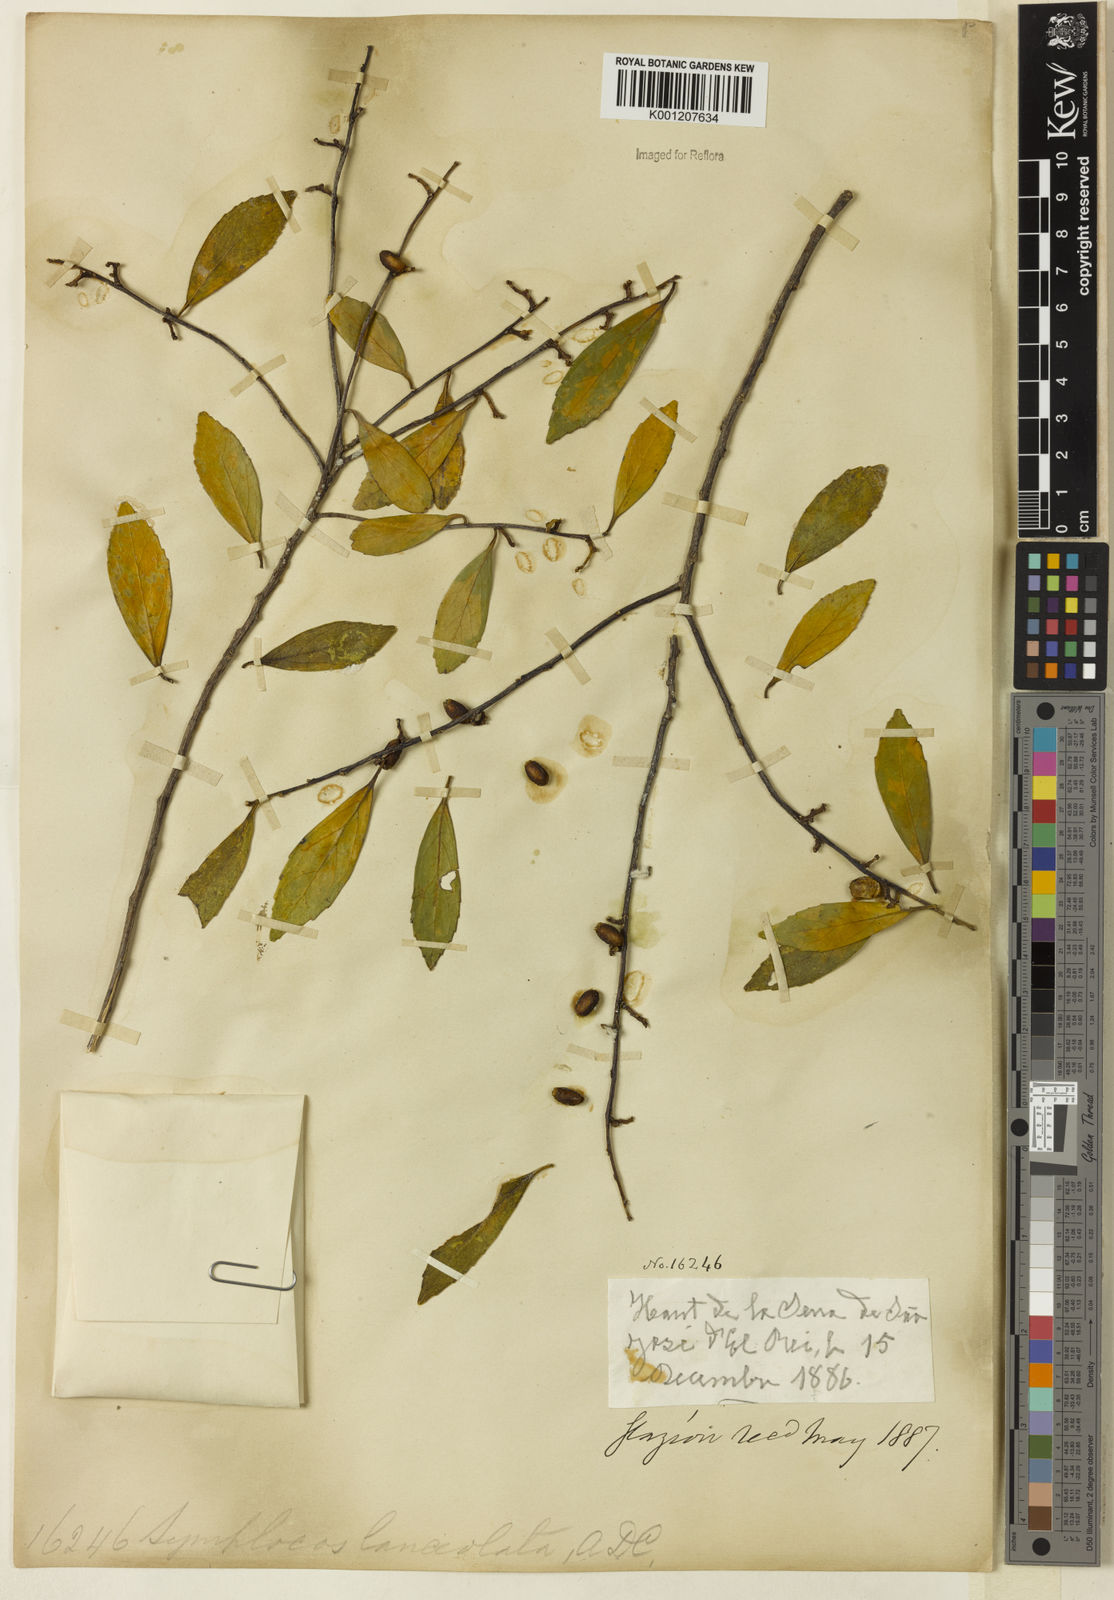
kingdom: Plantae
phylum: Tracheophyta
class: Magnoliopsida
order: Ericales
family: Symplocaceae
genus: Symplocos
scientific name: Symplocos oblongifolia
